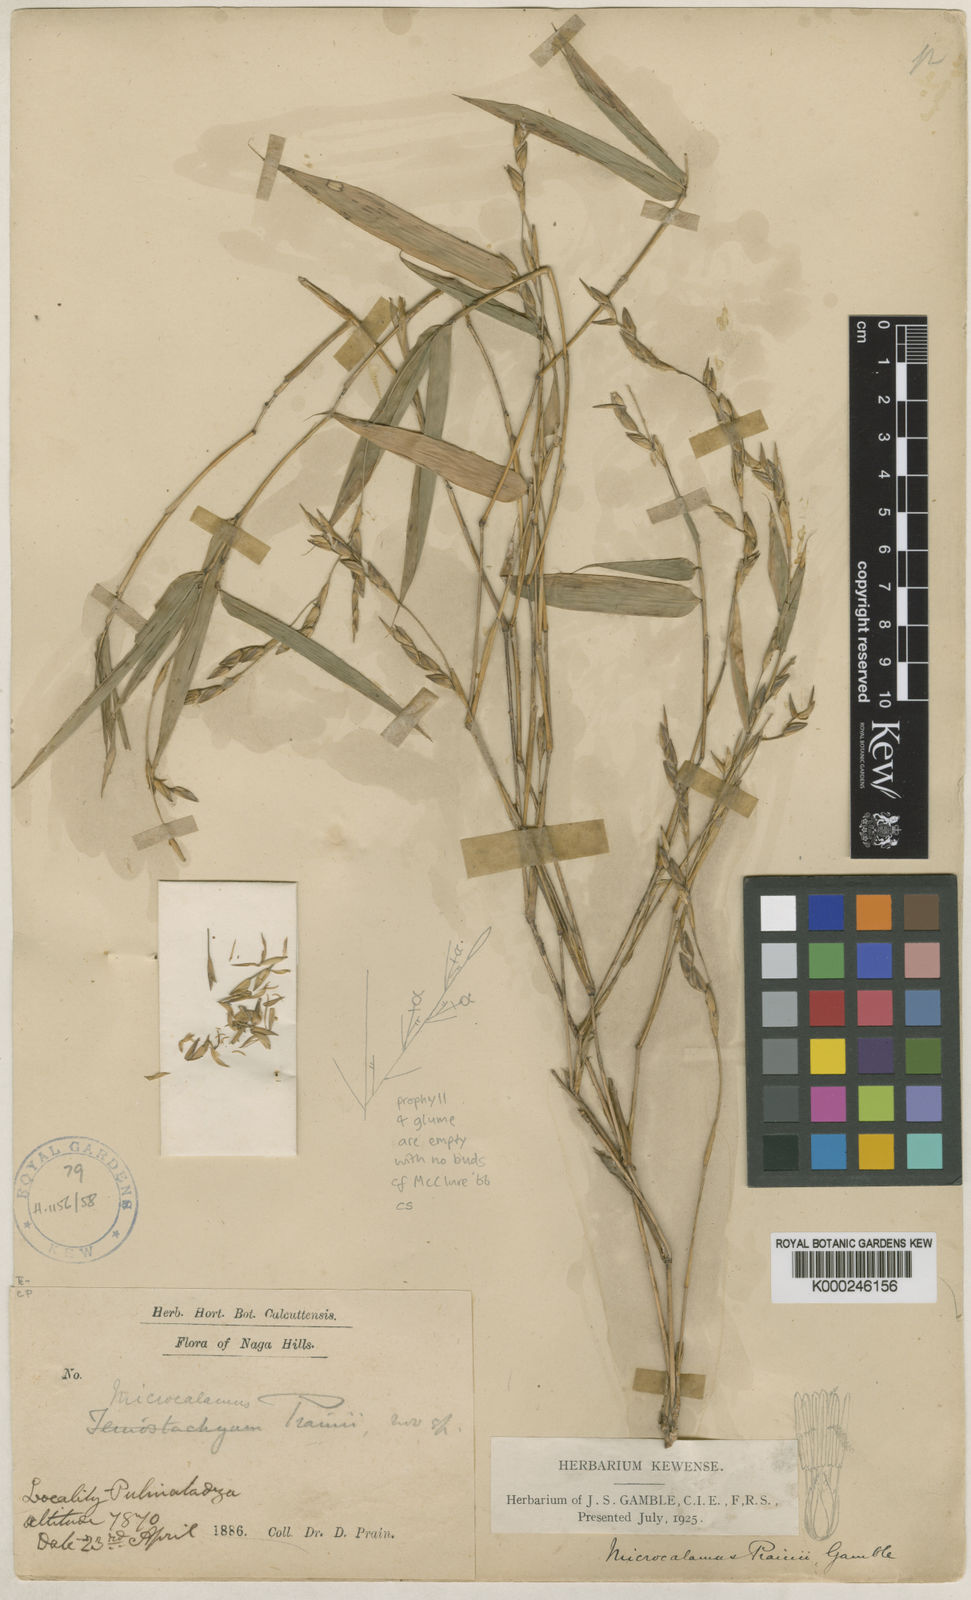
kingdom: Plantae
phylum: Tracheophyta
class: Liliopsida
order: Poales
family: Poaceae
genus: Neomicrocalamus
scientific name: Neomicrocalamus prainii
